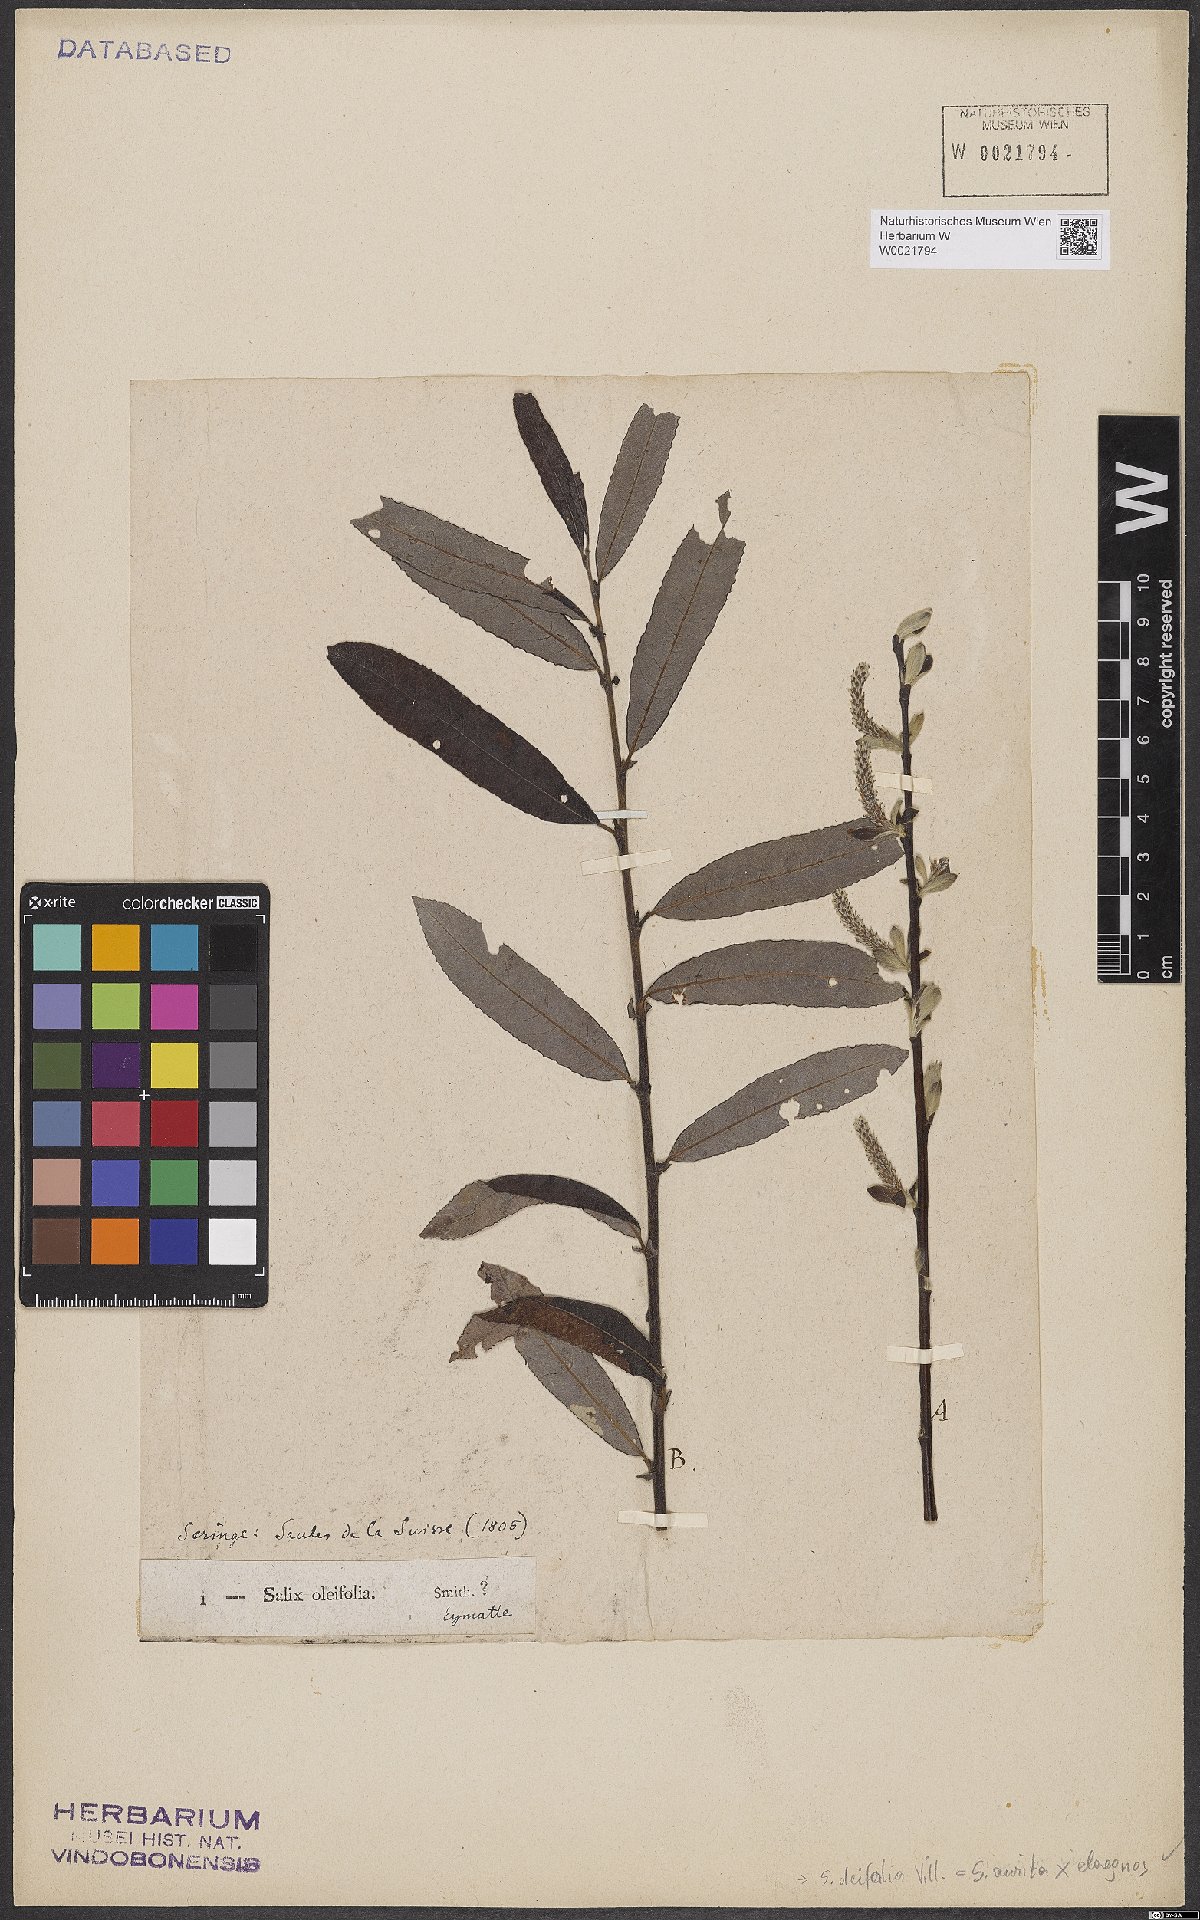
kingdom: Plantae
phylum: Tracheophyta
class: Magnoliopsida
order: Malpighiales
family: Salicaceae
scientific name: Salicaceae
